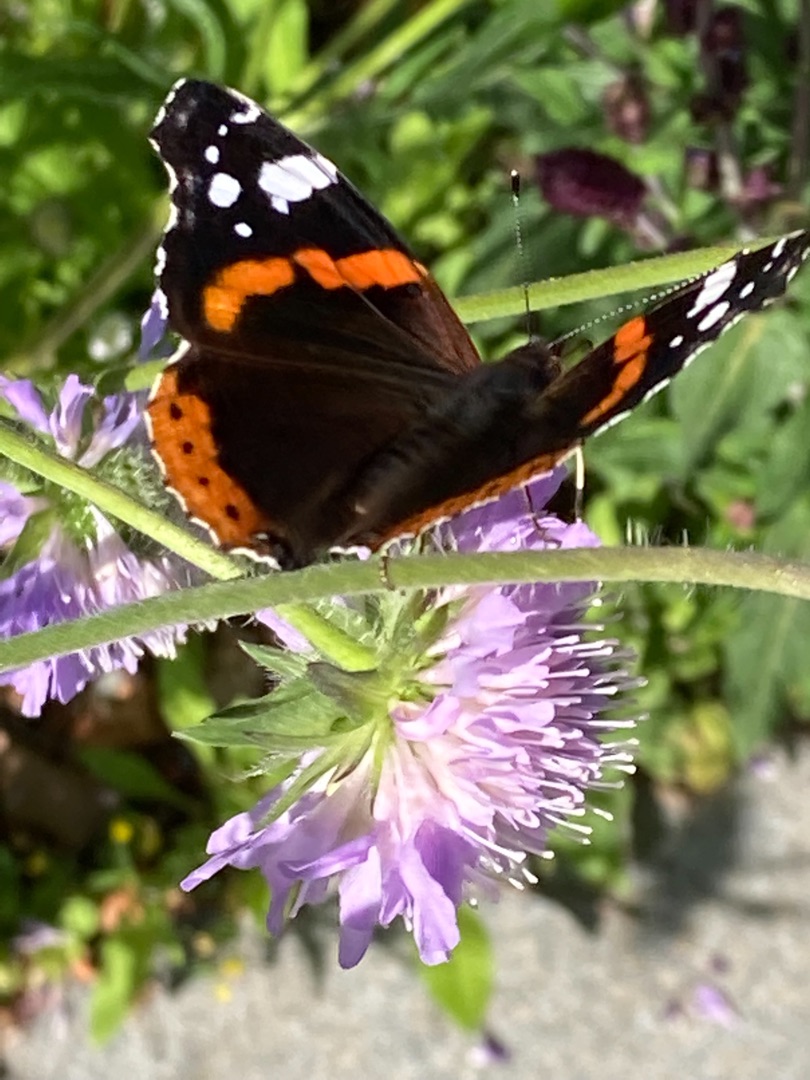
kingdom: Animalia
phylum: Arthropoda
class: Insecta
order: Lepidoptera
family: Nymphalidae
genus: Vanessa
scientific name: Vanessa atalanta
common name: Admiral
